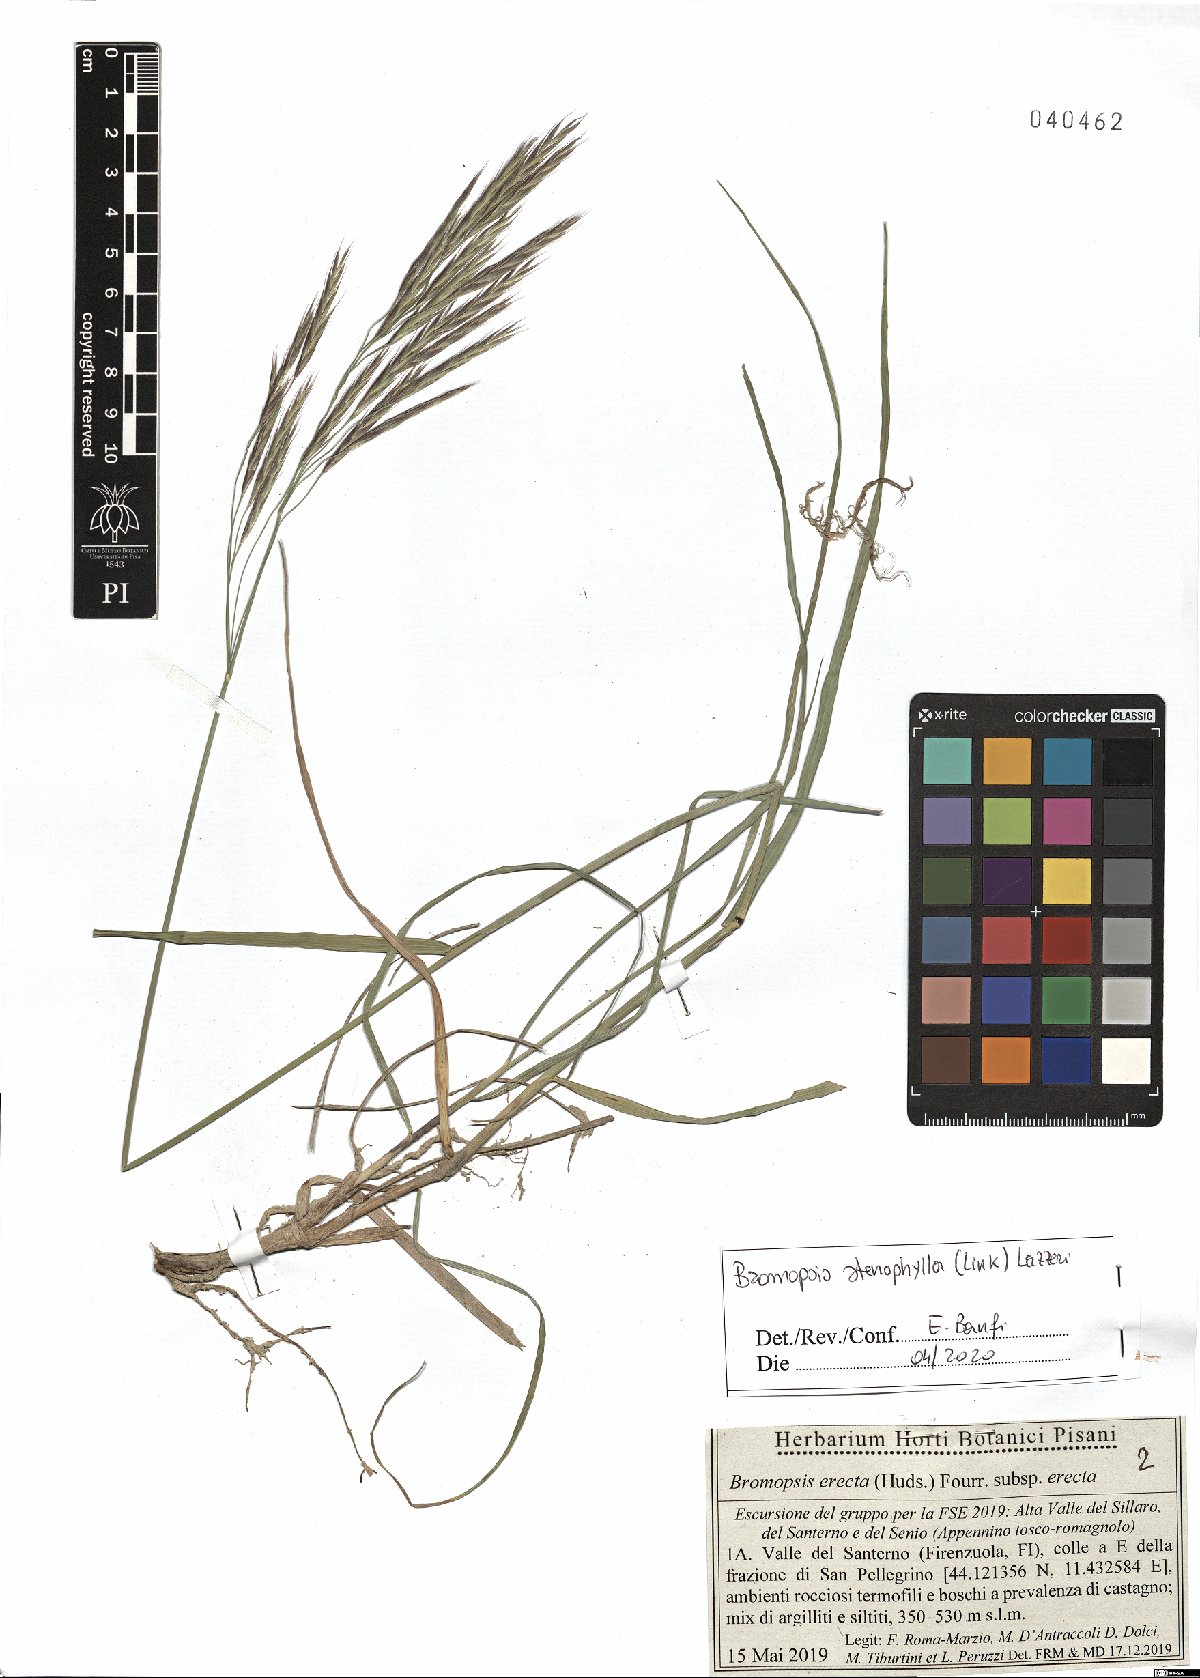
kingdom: Plantae
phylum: Tracheophyta
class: Liliopsida
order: Poales
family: Poaceae
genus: Bromus
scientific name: Bromus erectus
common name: Erect brome
